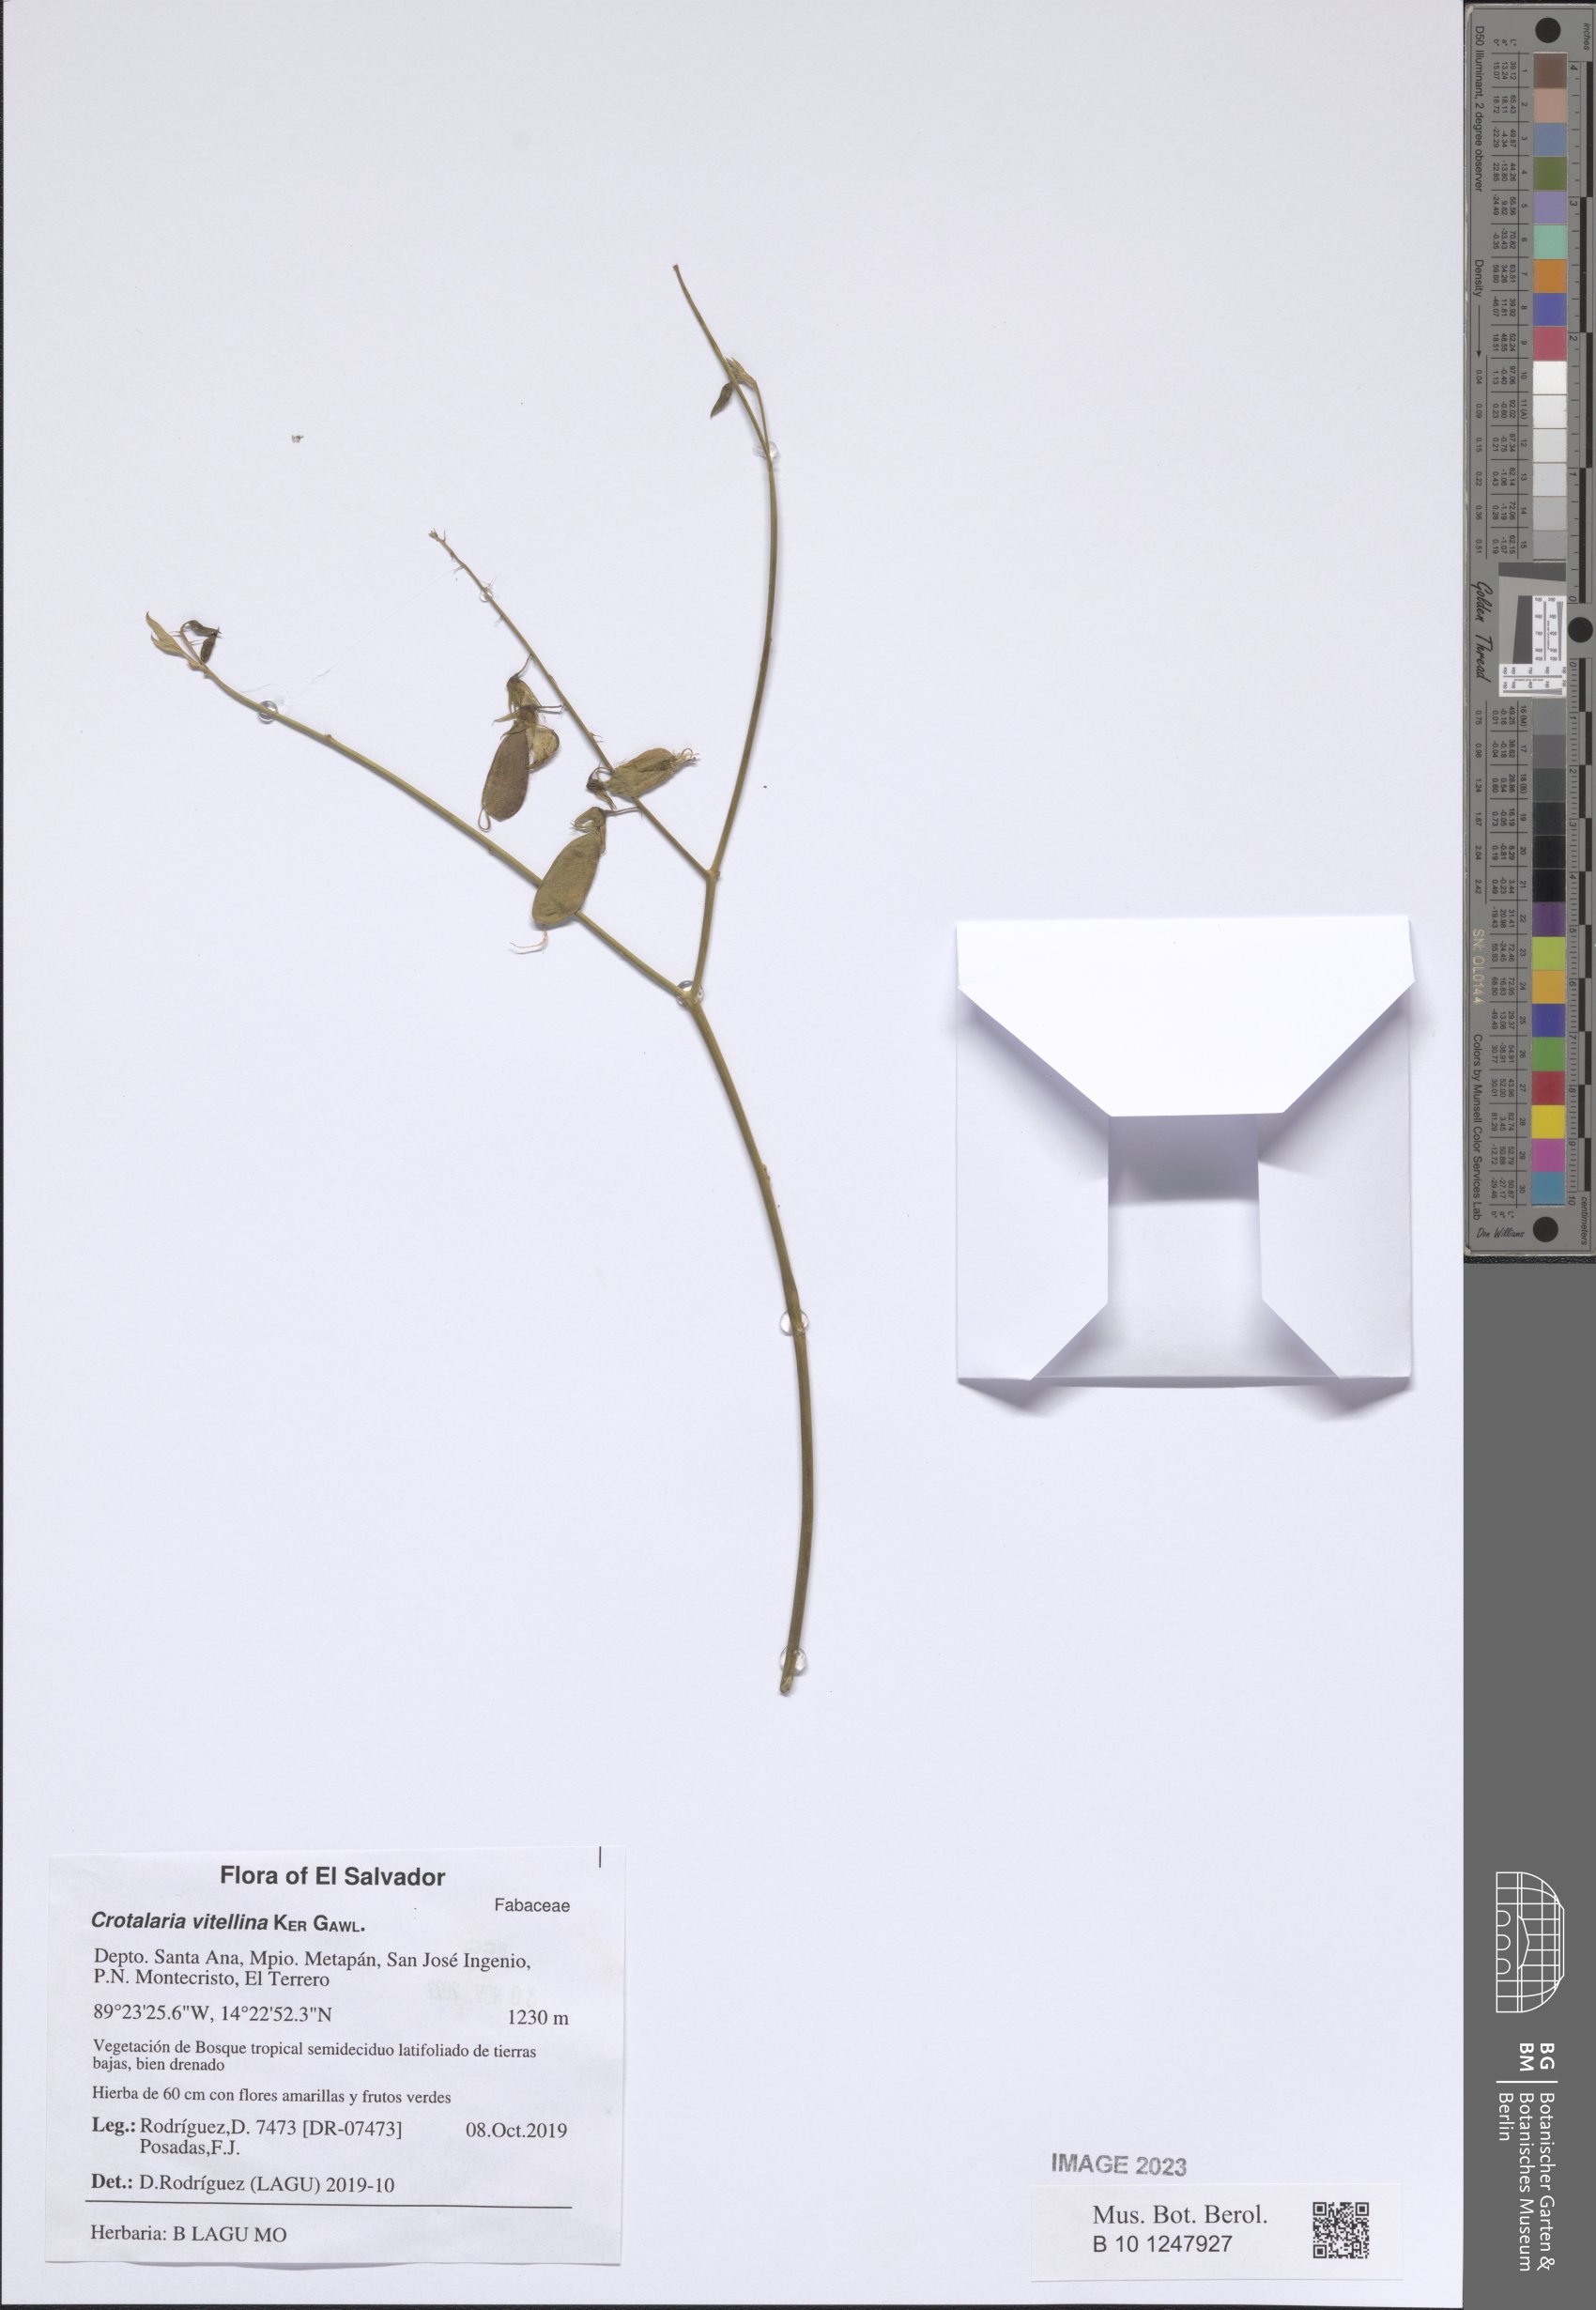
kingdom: Plantae
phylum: Tracheophyta
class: Magnoliopsida
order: Fabales
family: Fabaceae
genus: Crotalaria
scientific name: Crotalaria vitellina
